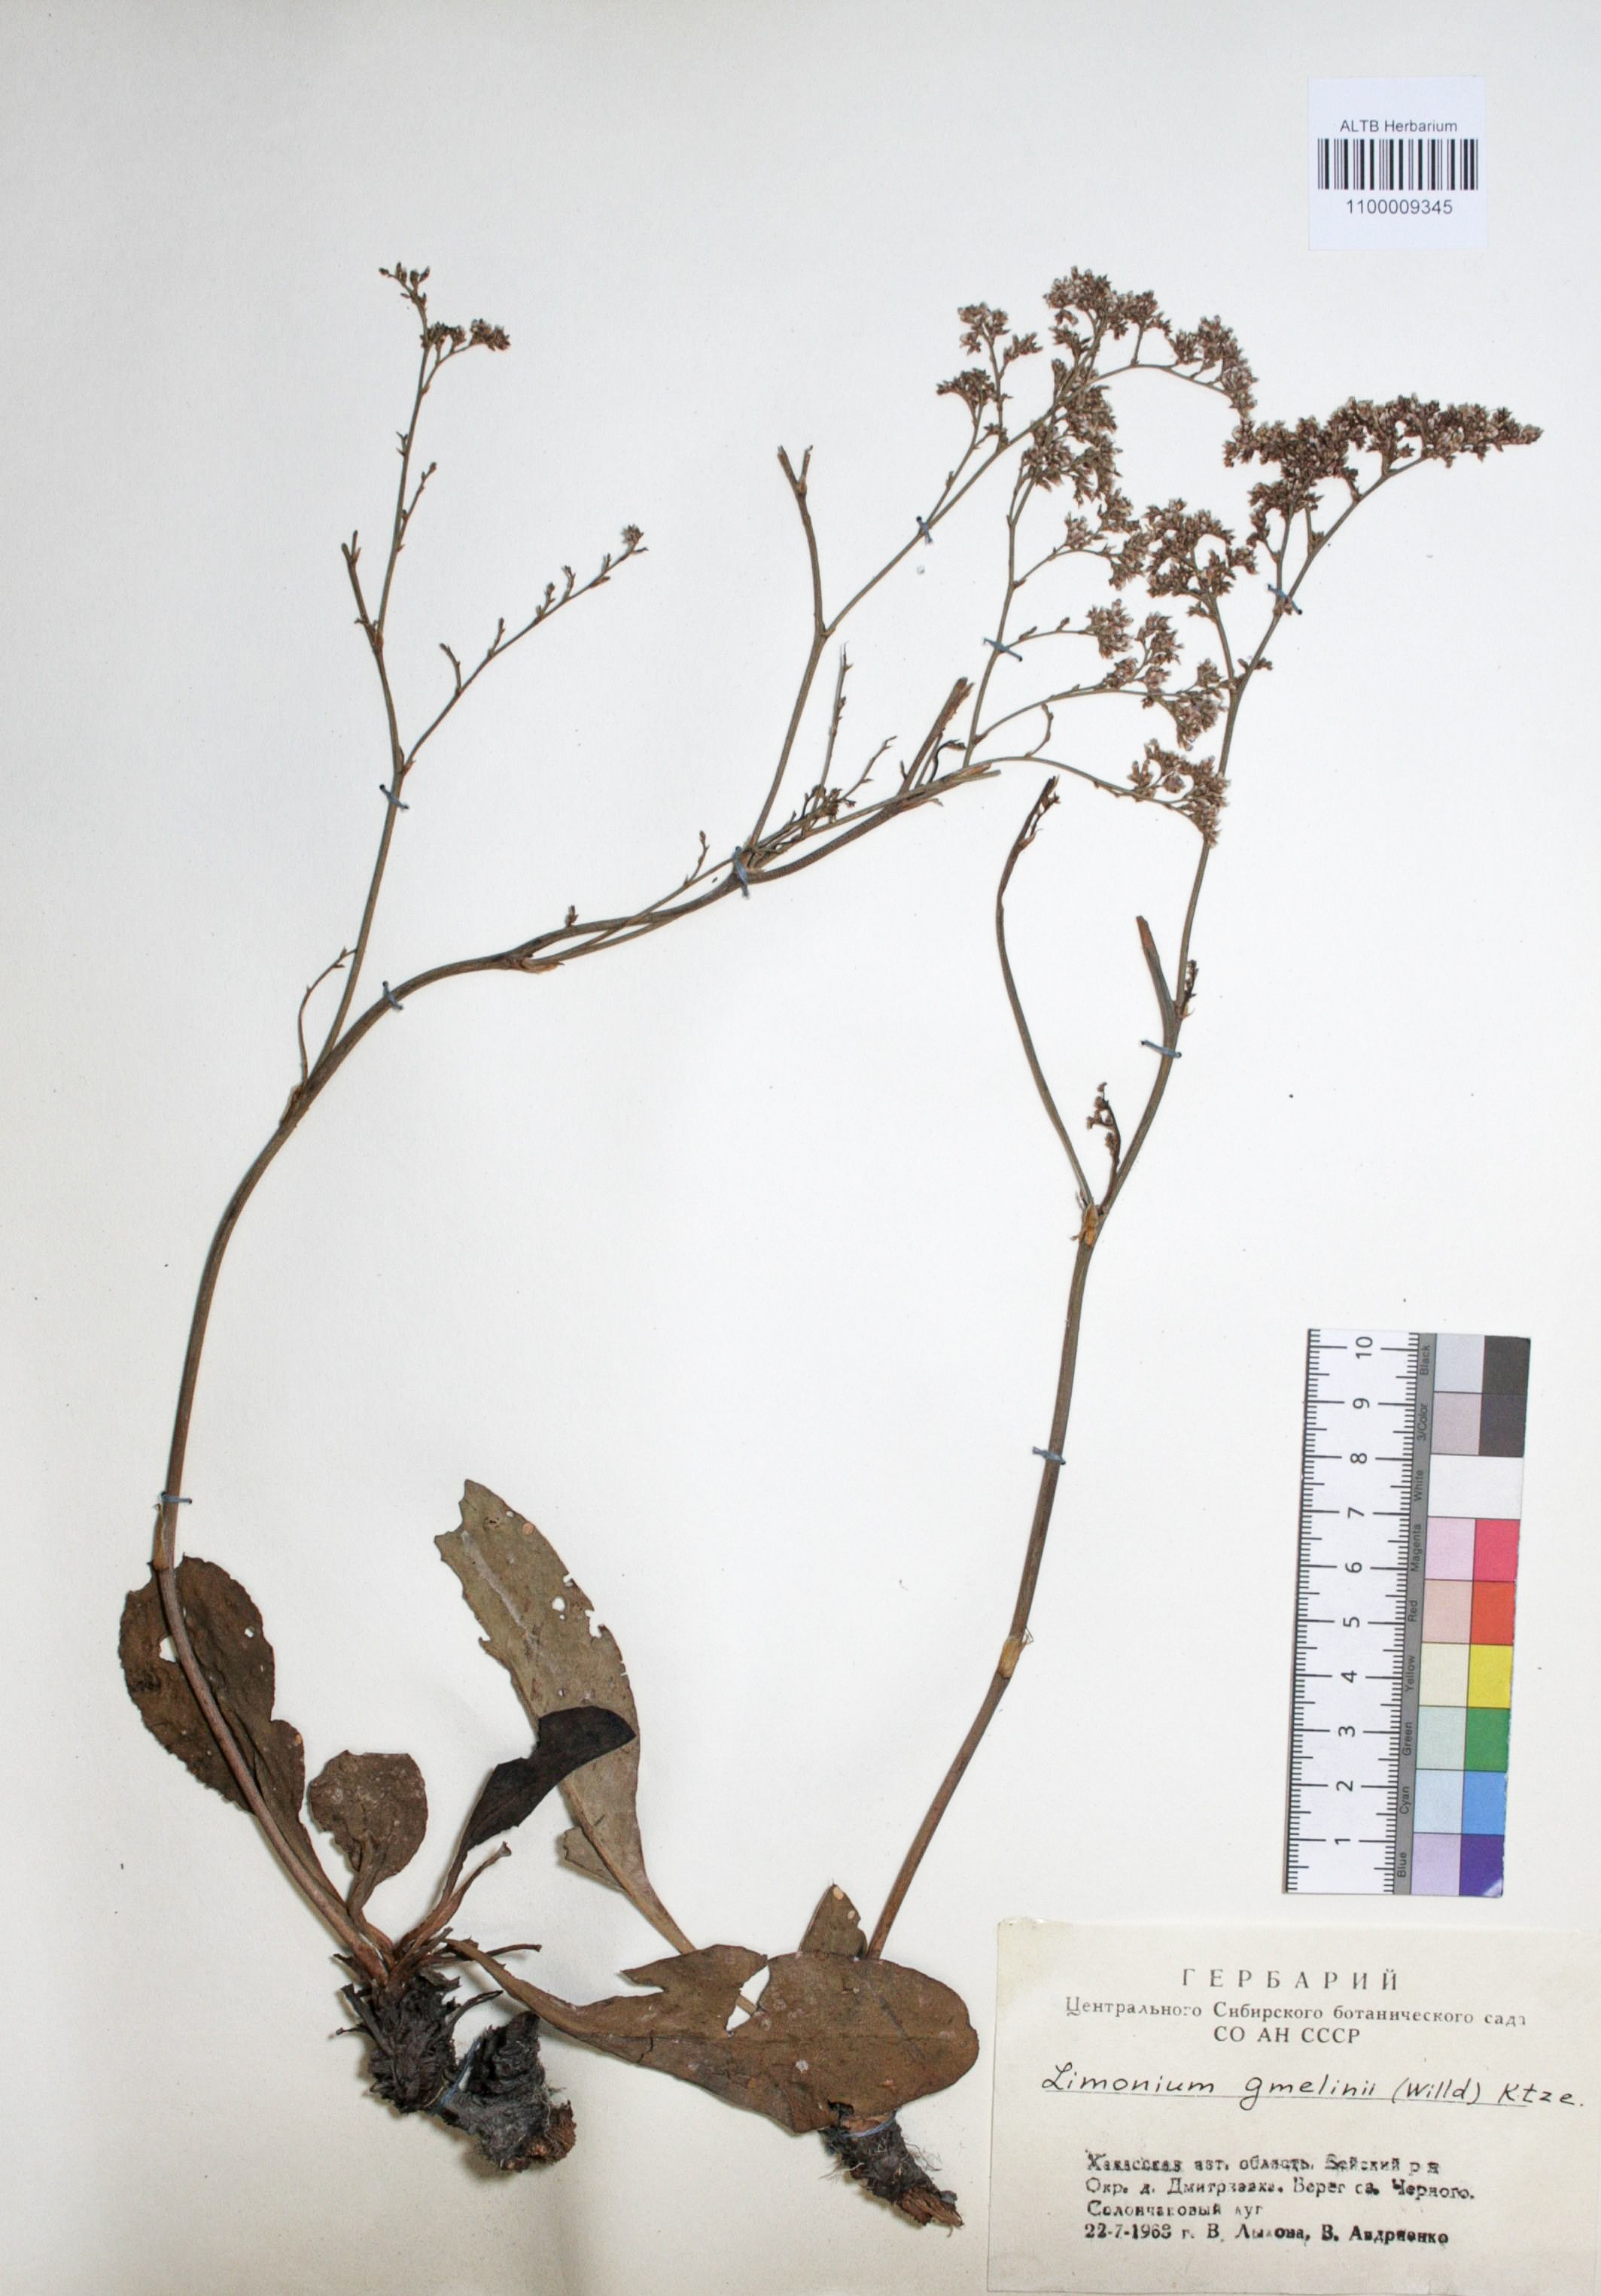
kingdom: Plantae
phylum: Tracheophyta
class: Magnoliopsida
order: Caryophyllales
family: Plumbaginaceae
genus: Limonium
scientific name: Limonium gmelini
